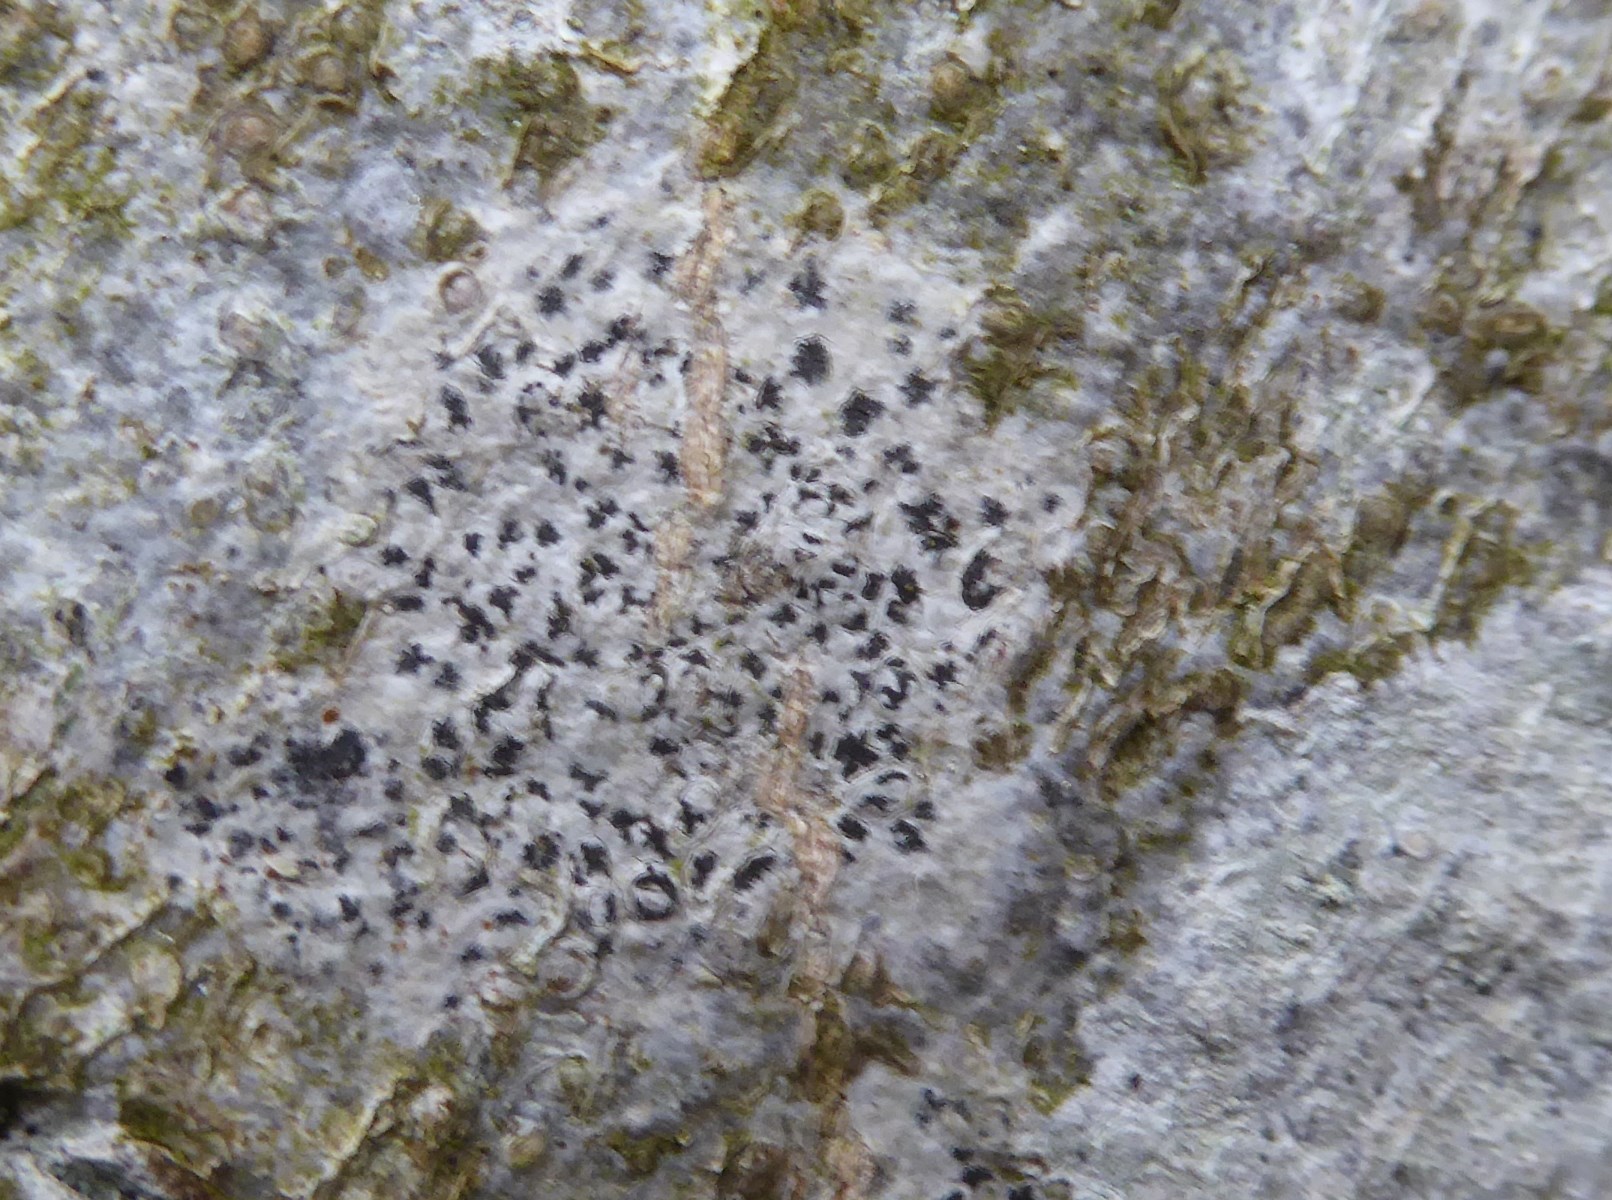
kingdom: Fungi
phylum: Ascomycota
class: Arthoniomycetes
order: Arthoniales
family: Arthoniaceae
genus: Arthonia
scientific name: Arthonia radiata
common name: stjerne-pletlav
